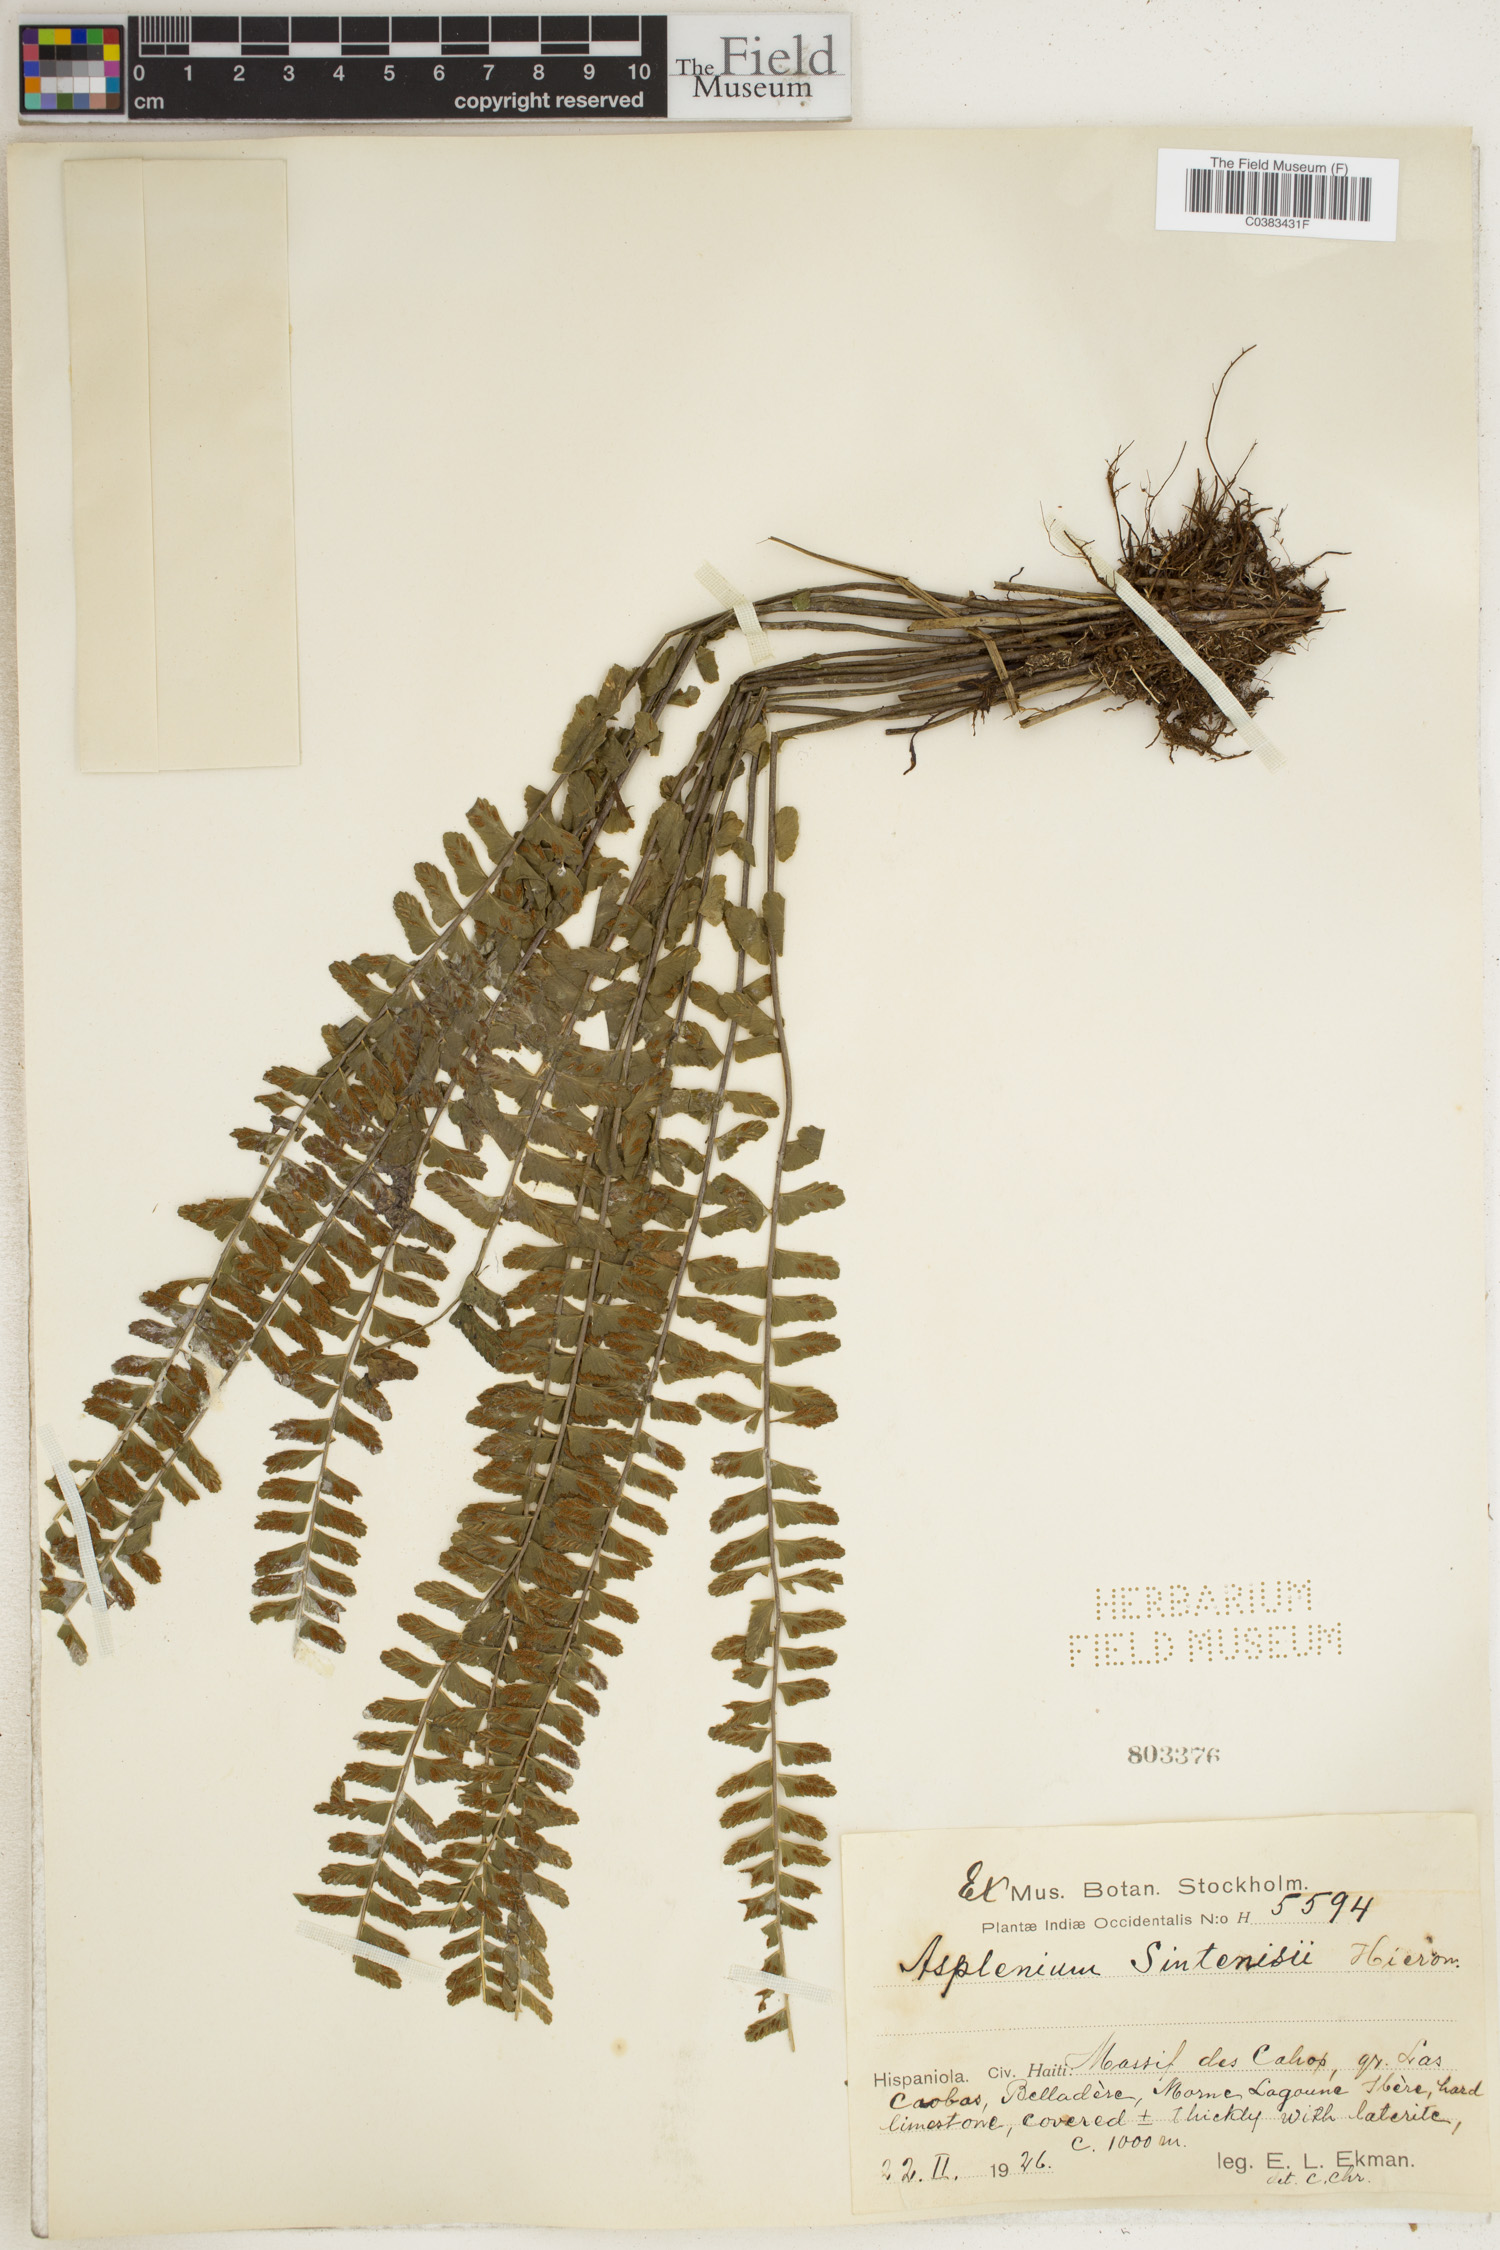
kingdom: Plantae
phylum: Tracheophyta
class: Polypodiopsida
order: Polypodiales
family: Aspleniaceae
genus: Asplenium
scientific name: Asplenium rhomboidale
